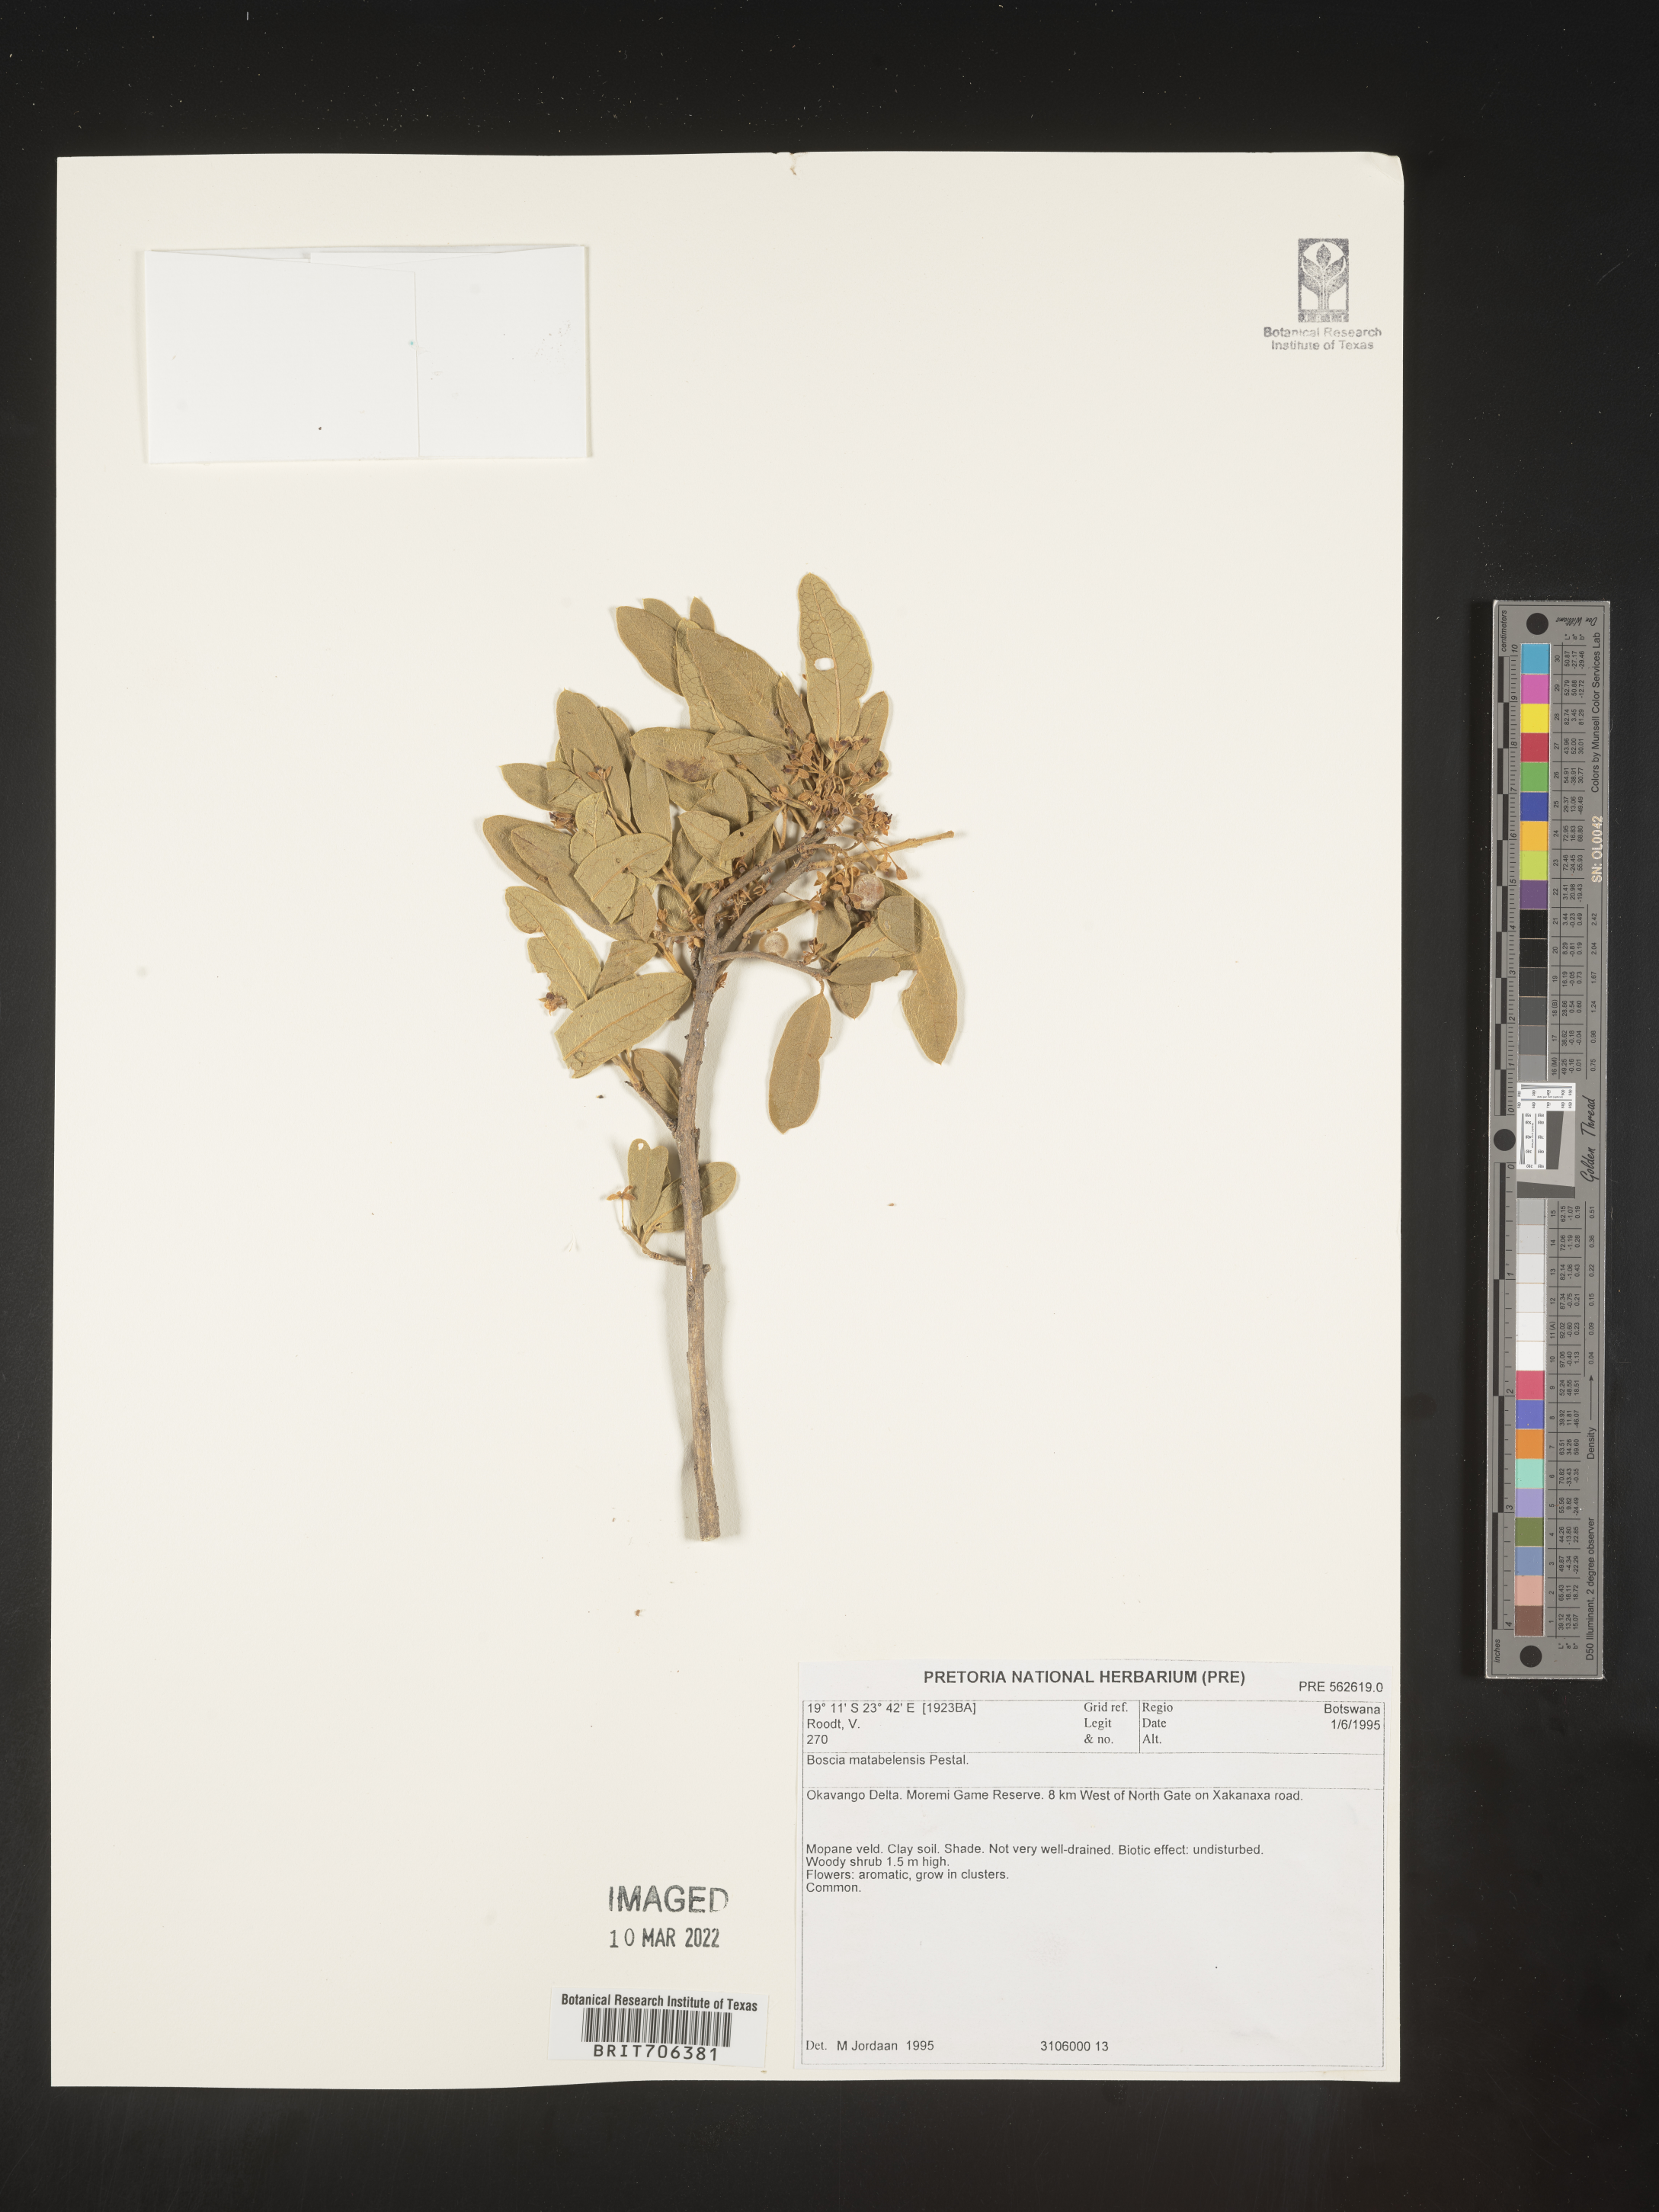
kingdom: Plantae
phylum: Tracheophyta
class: Magnoliopsida
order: Brassicales
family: Capparaceae
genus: Boscia
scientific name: Boscia
